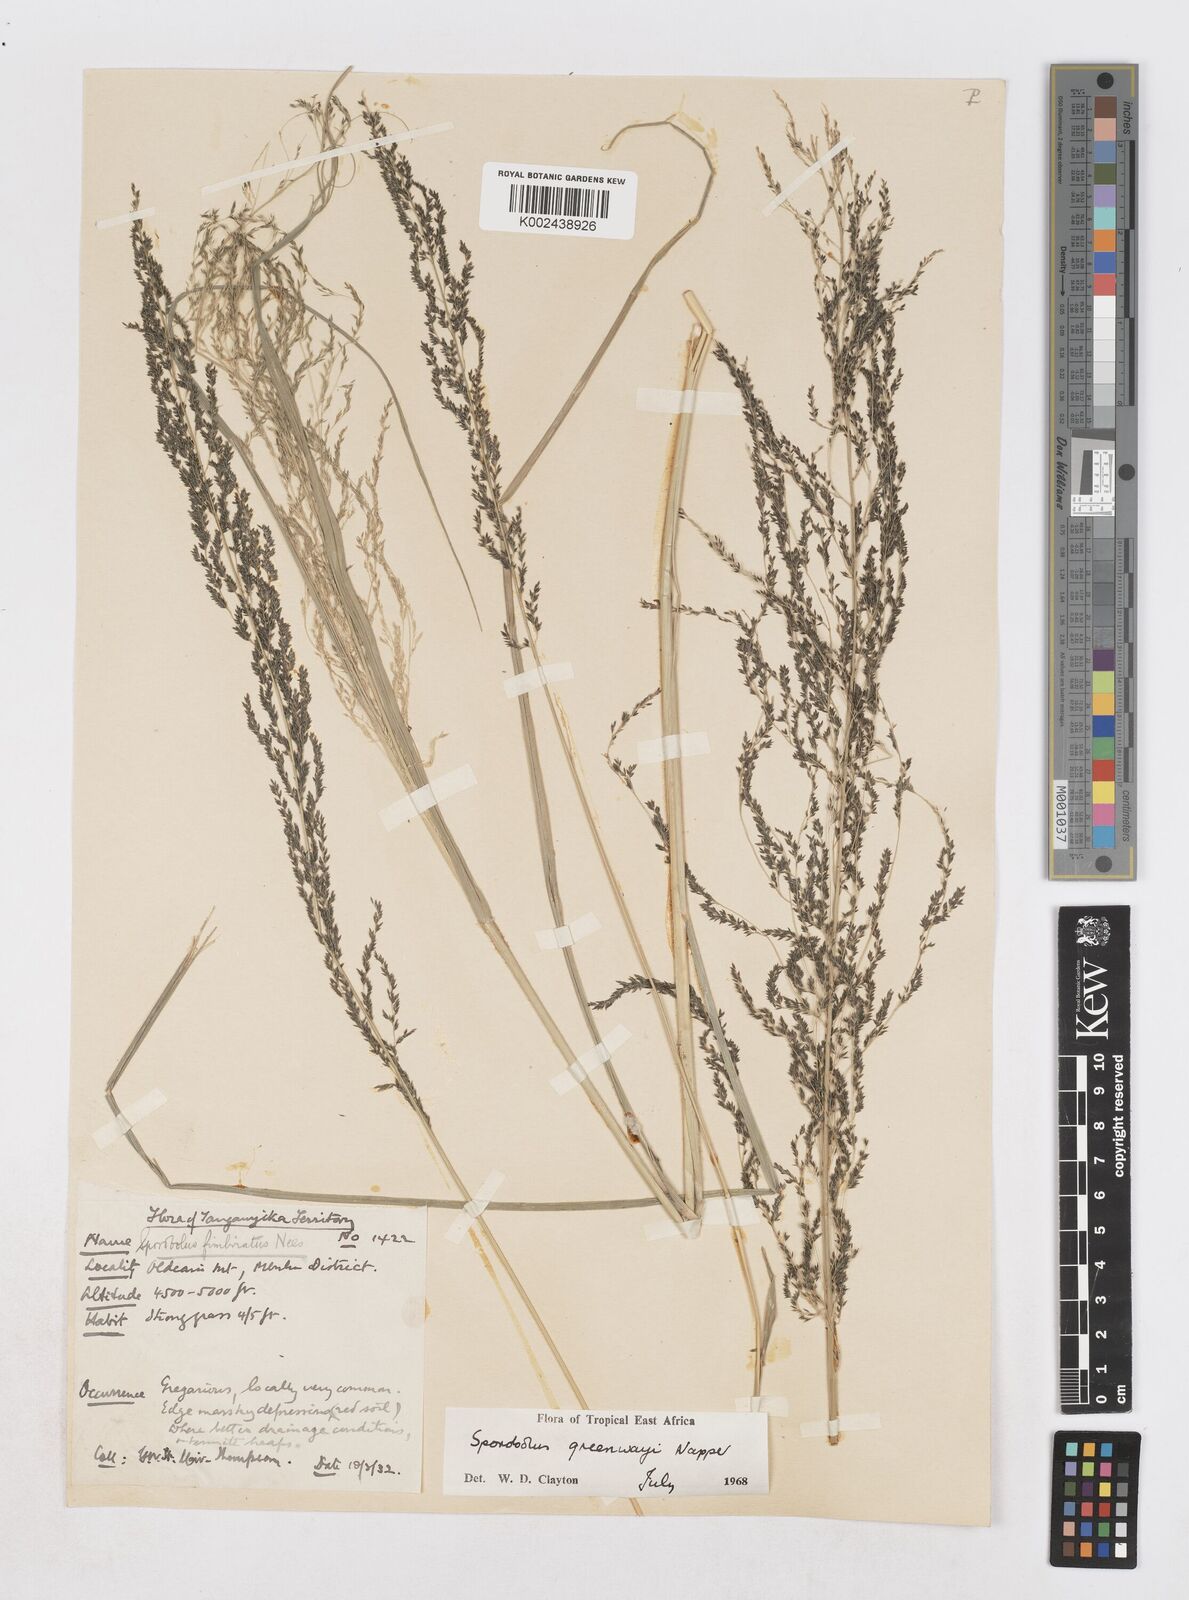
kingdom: Plantae
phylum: Tracheophyta
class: Liliopsida
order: Poales
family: Poaceae
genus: Sporobolus
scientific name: Sporobolus macranthelus
